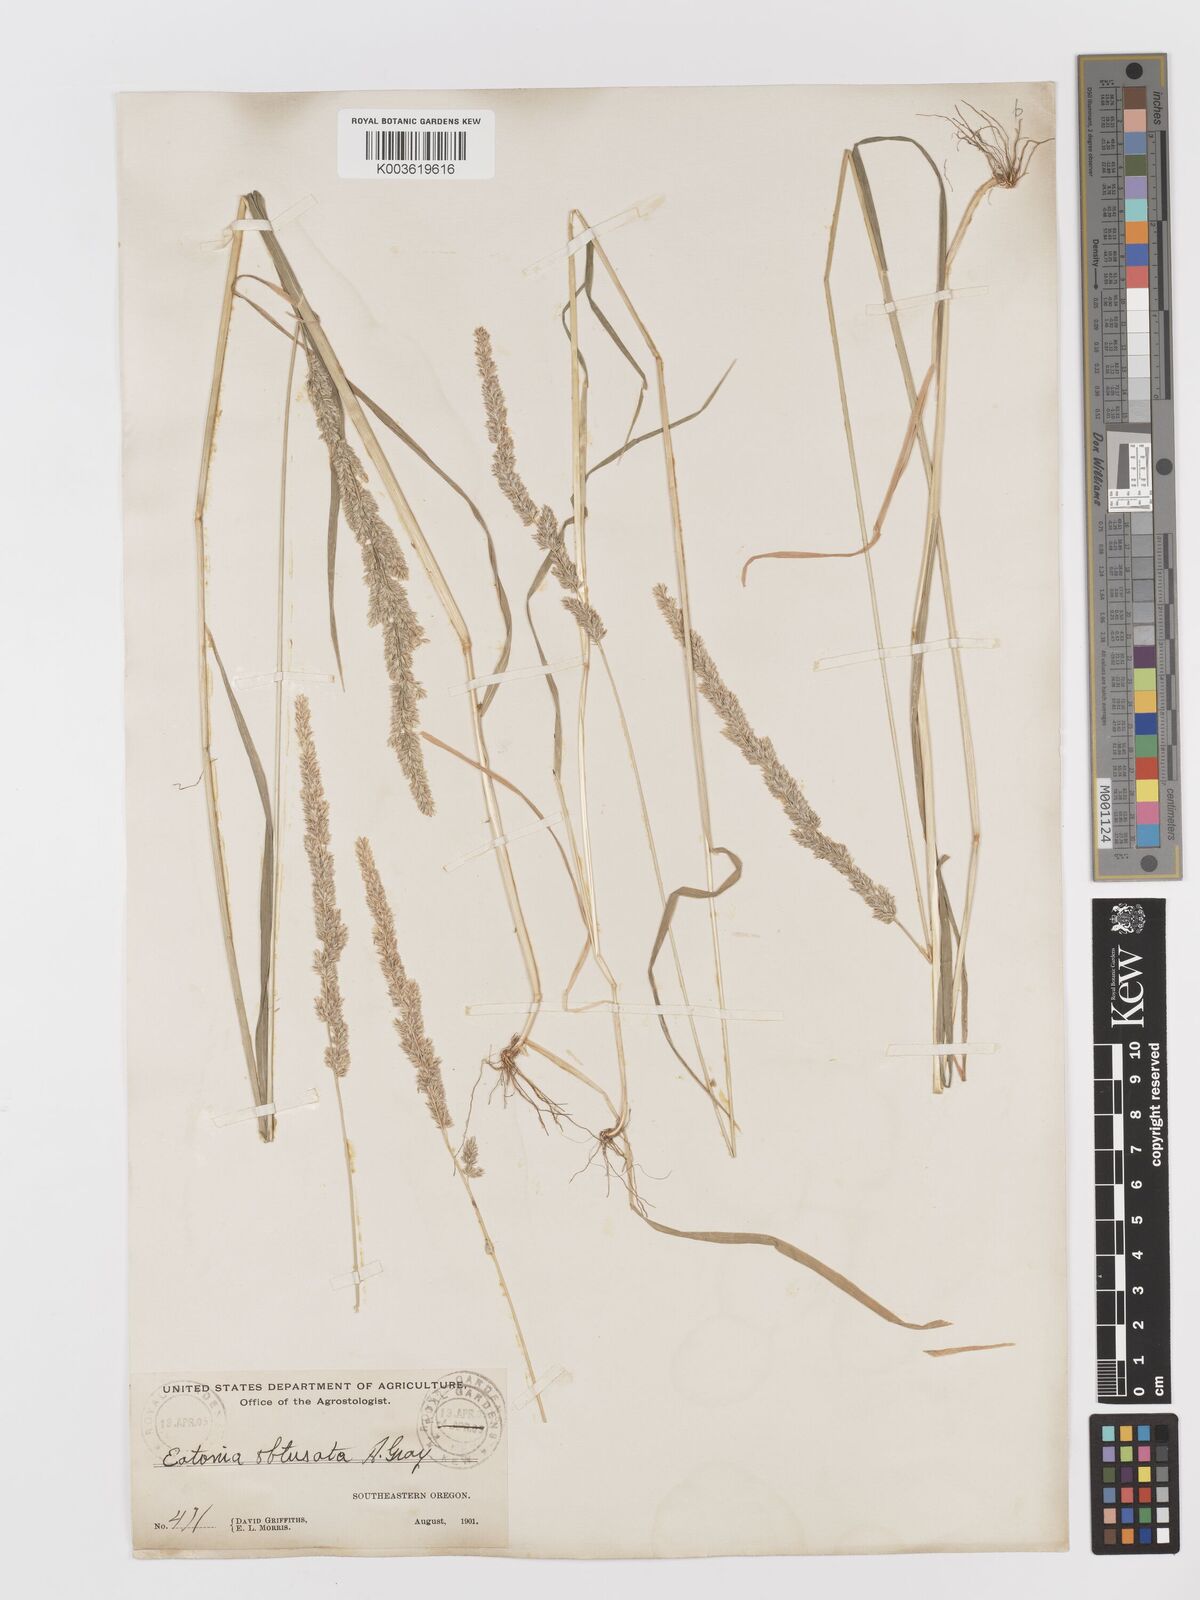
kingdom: Plantae
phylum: Tracheophyta
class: Liliopsida
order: Poales
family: Poaceae
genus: Sphenopholis
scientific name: Sphenopholis obtusata
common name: Prairie grass
